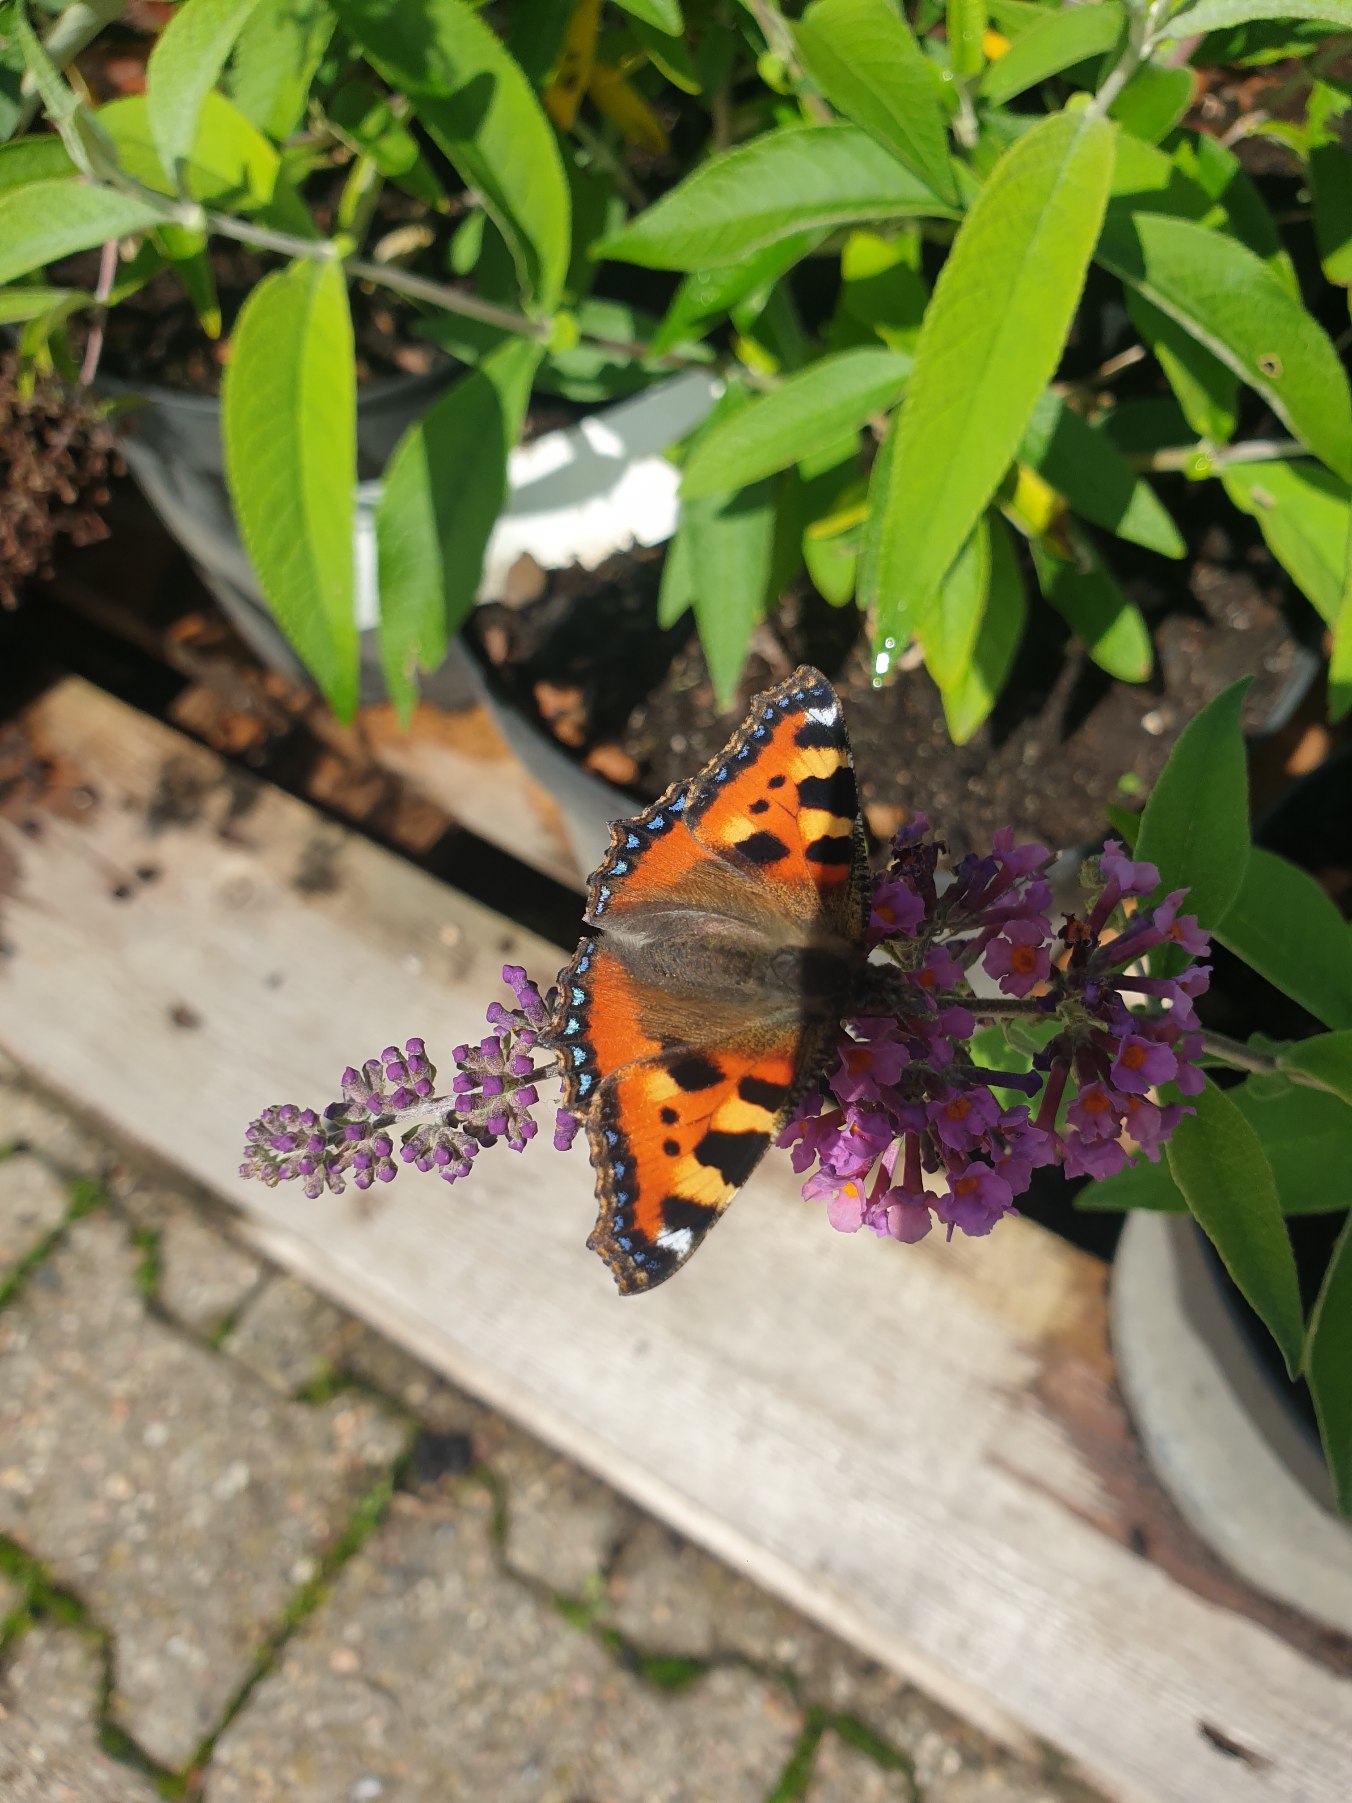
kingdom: Animalia
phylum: Arthropoda
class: Insecta
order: Lepidoptera
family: Nymphalidae
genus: Aglais
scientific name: Aglais urticae
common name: Nældens takvinge
